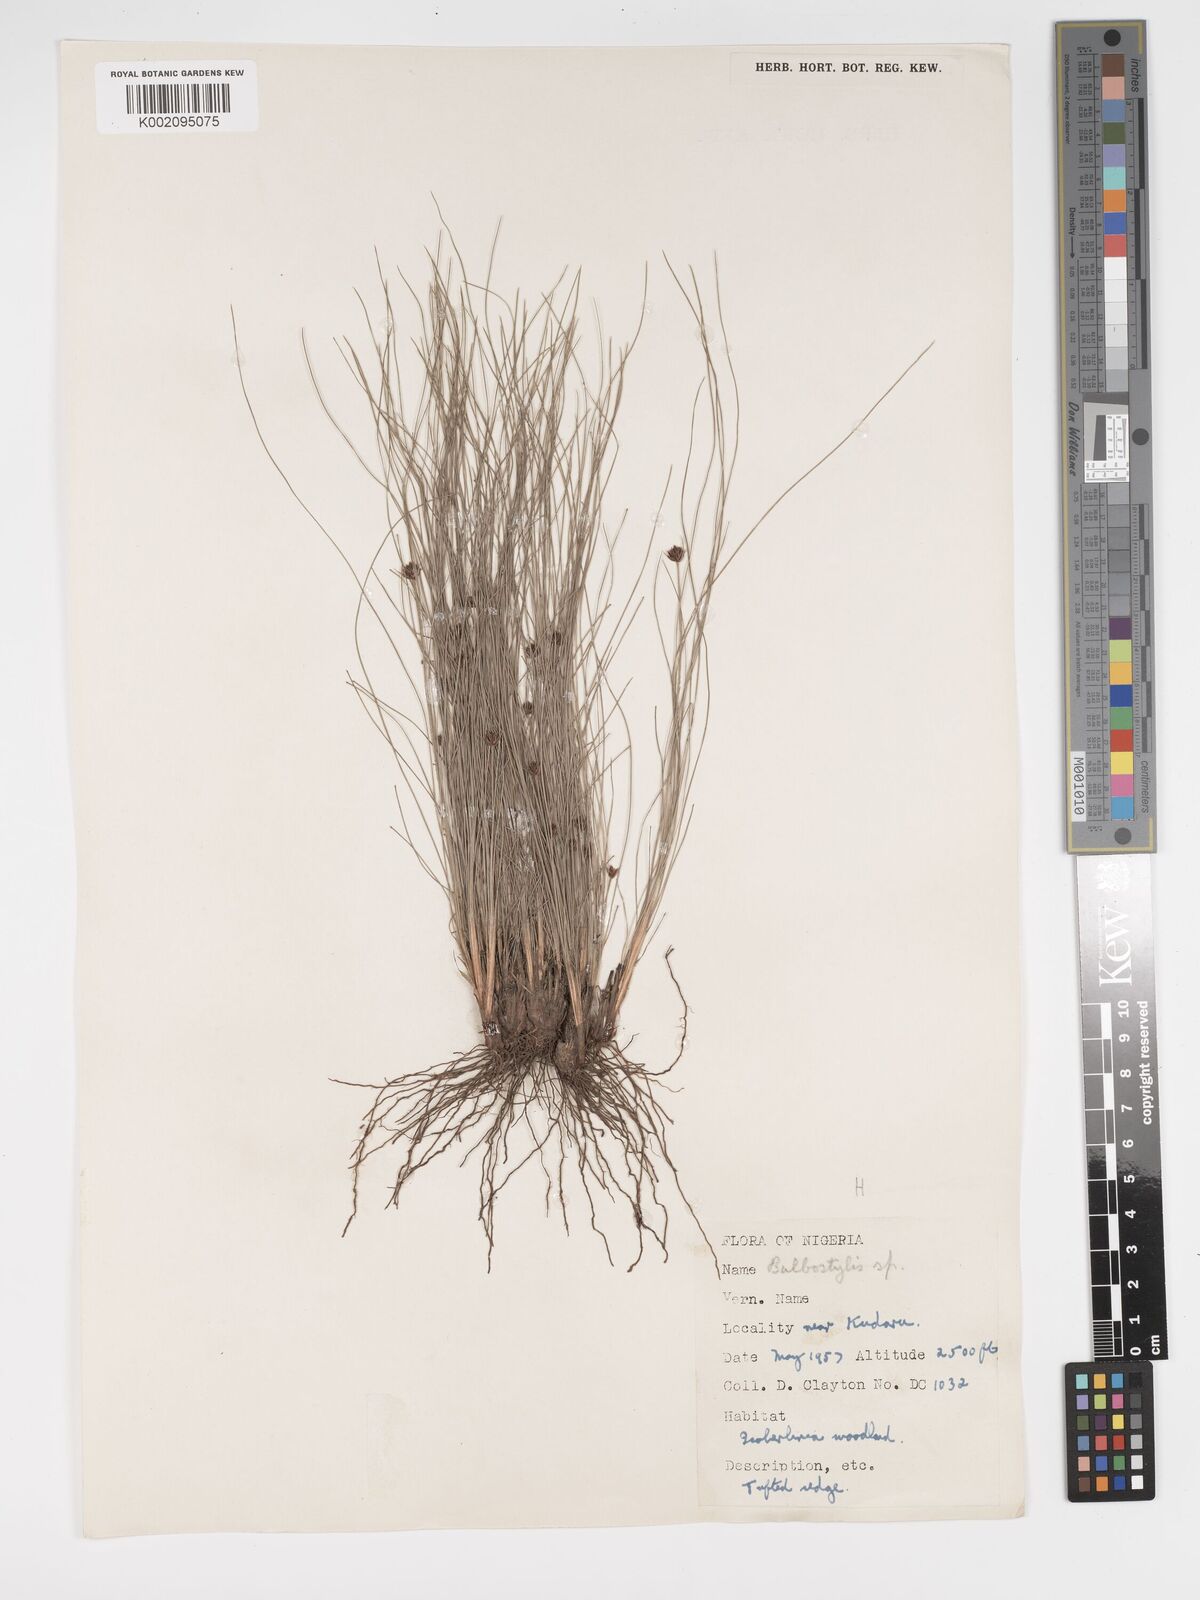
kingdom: Plantae
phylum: Tracheophyta
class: Liliopsida
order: Poales
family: Cyperaceae
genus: Bulbostylis
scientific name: Bulbostylis scabricaulis
